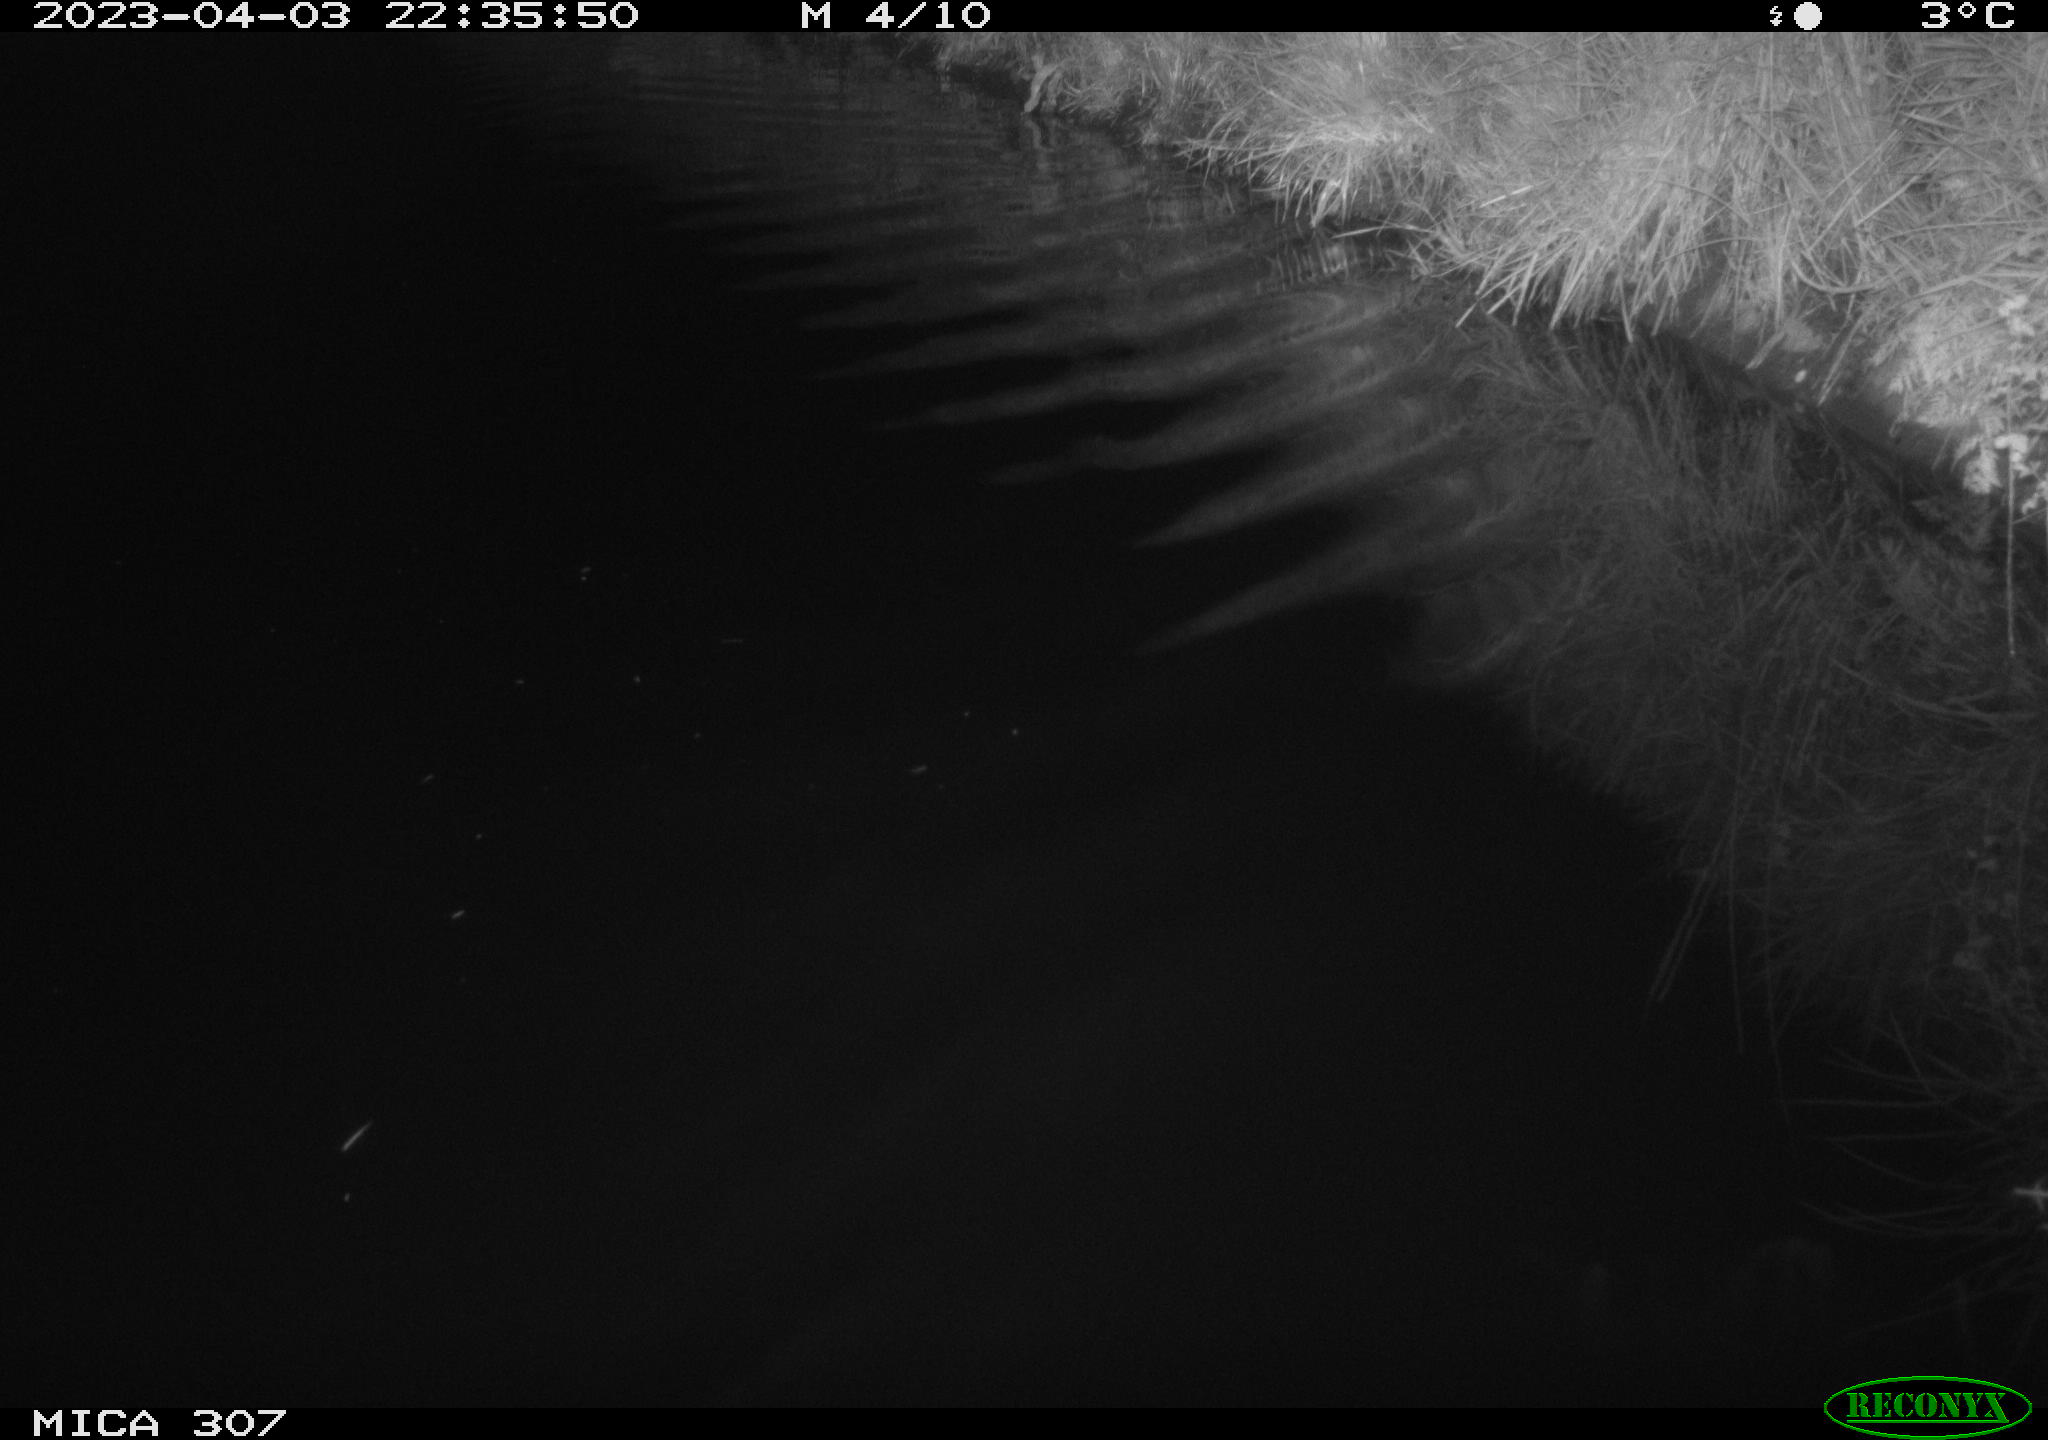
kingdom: Animalia
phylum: Chordata
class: Aves
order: Anseriformes
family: Anatidae
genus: Anas
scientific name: Anas
